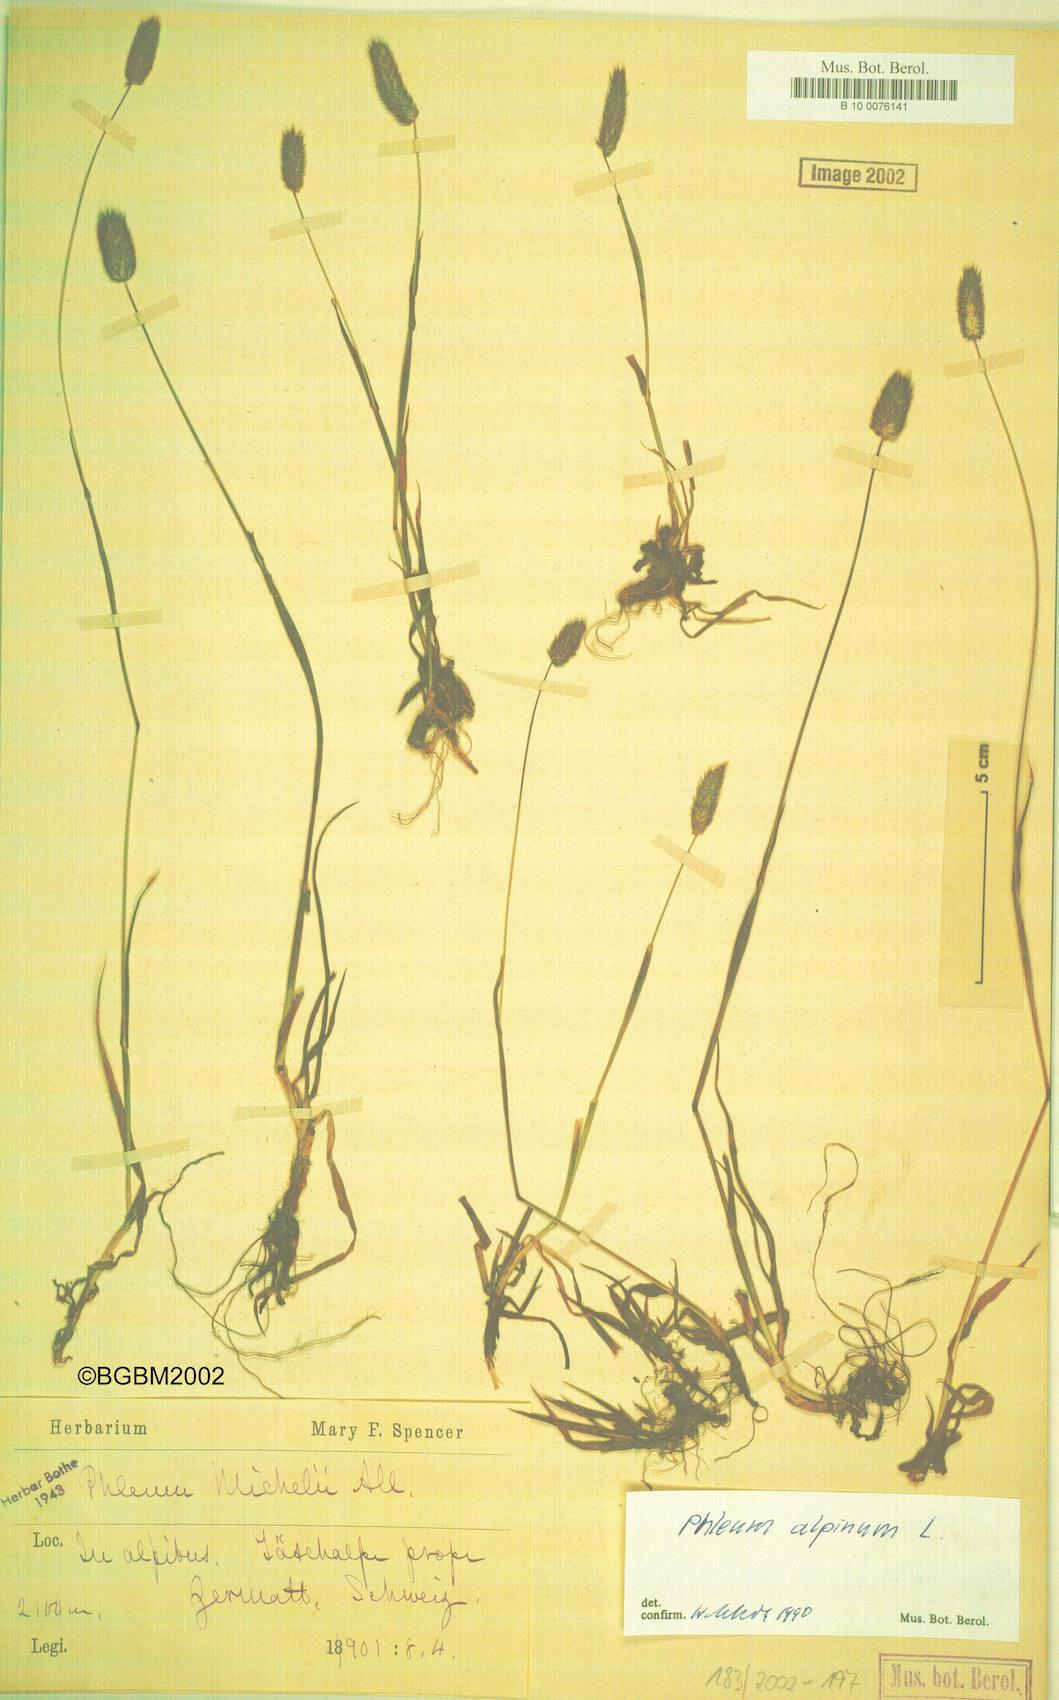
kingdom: Plantae
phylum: Tracheophyta
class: Liliopsida
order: Poales
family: Poaceae
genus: Phleum
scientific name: Phleum alpinum
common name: Alpine cat's-tail
